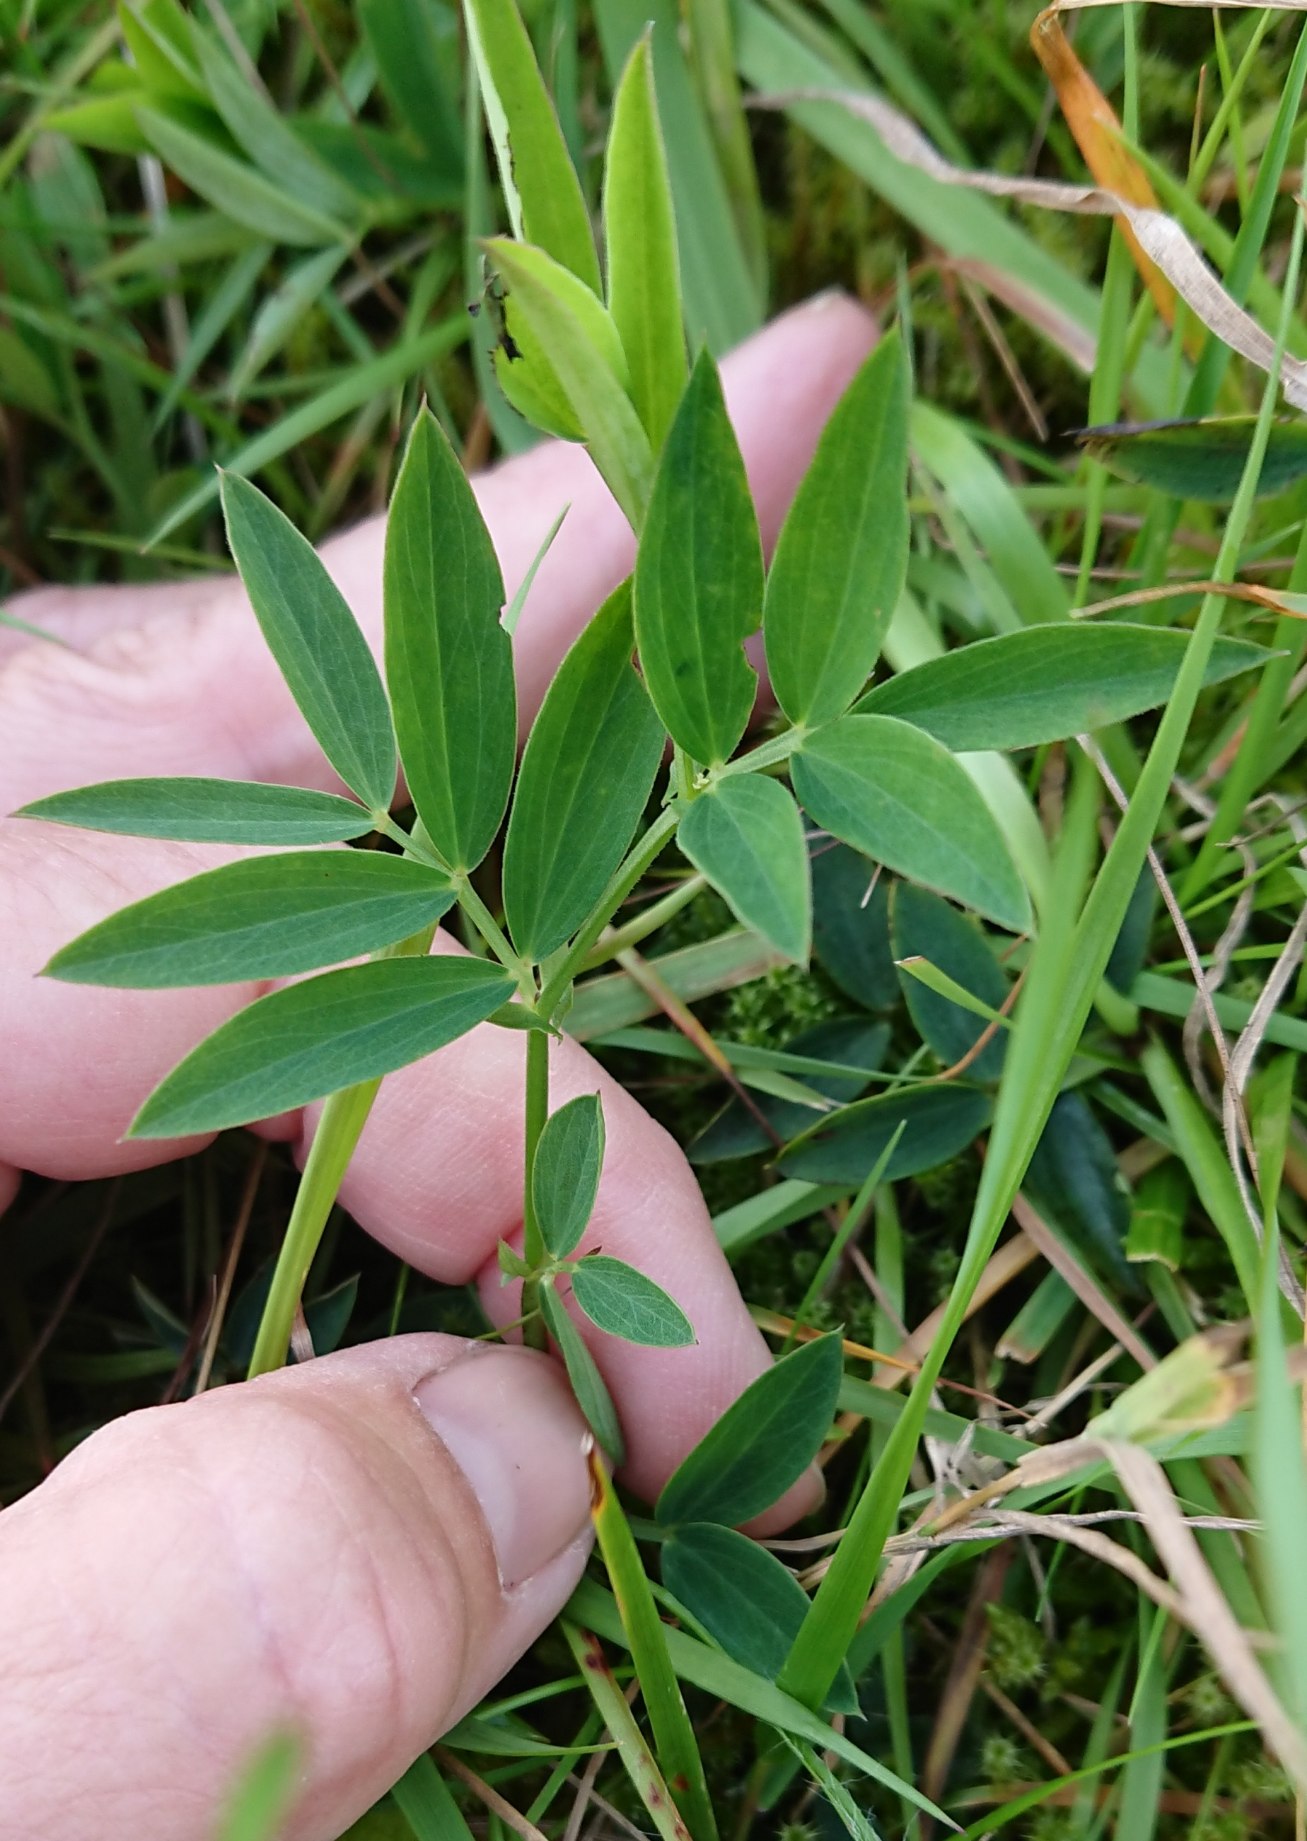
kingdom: Plantae
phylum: Tracheophyta
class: Magnoliopsida
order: Fabales
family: Fabaceae
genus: Lathyrus
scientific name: Lathyrus linifolius
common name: Krat-fladbælg
